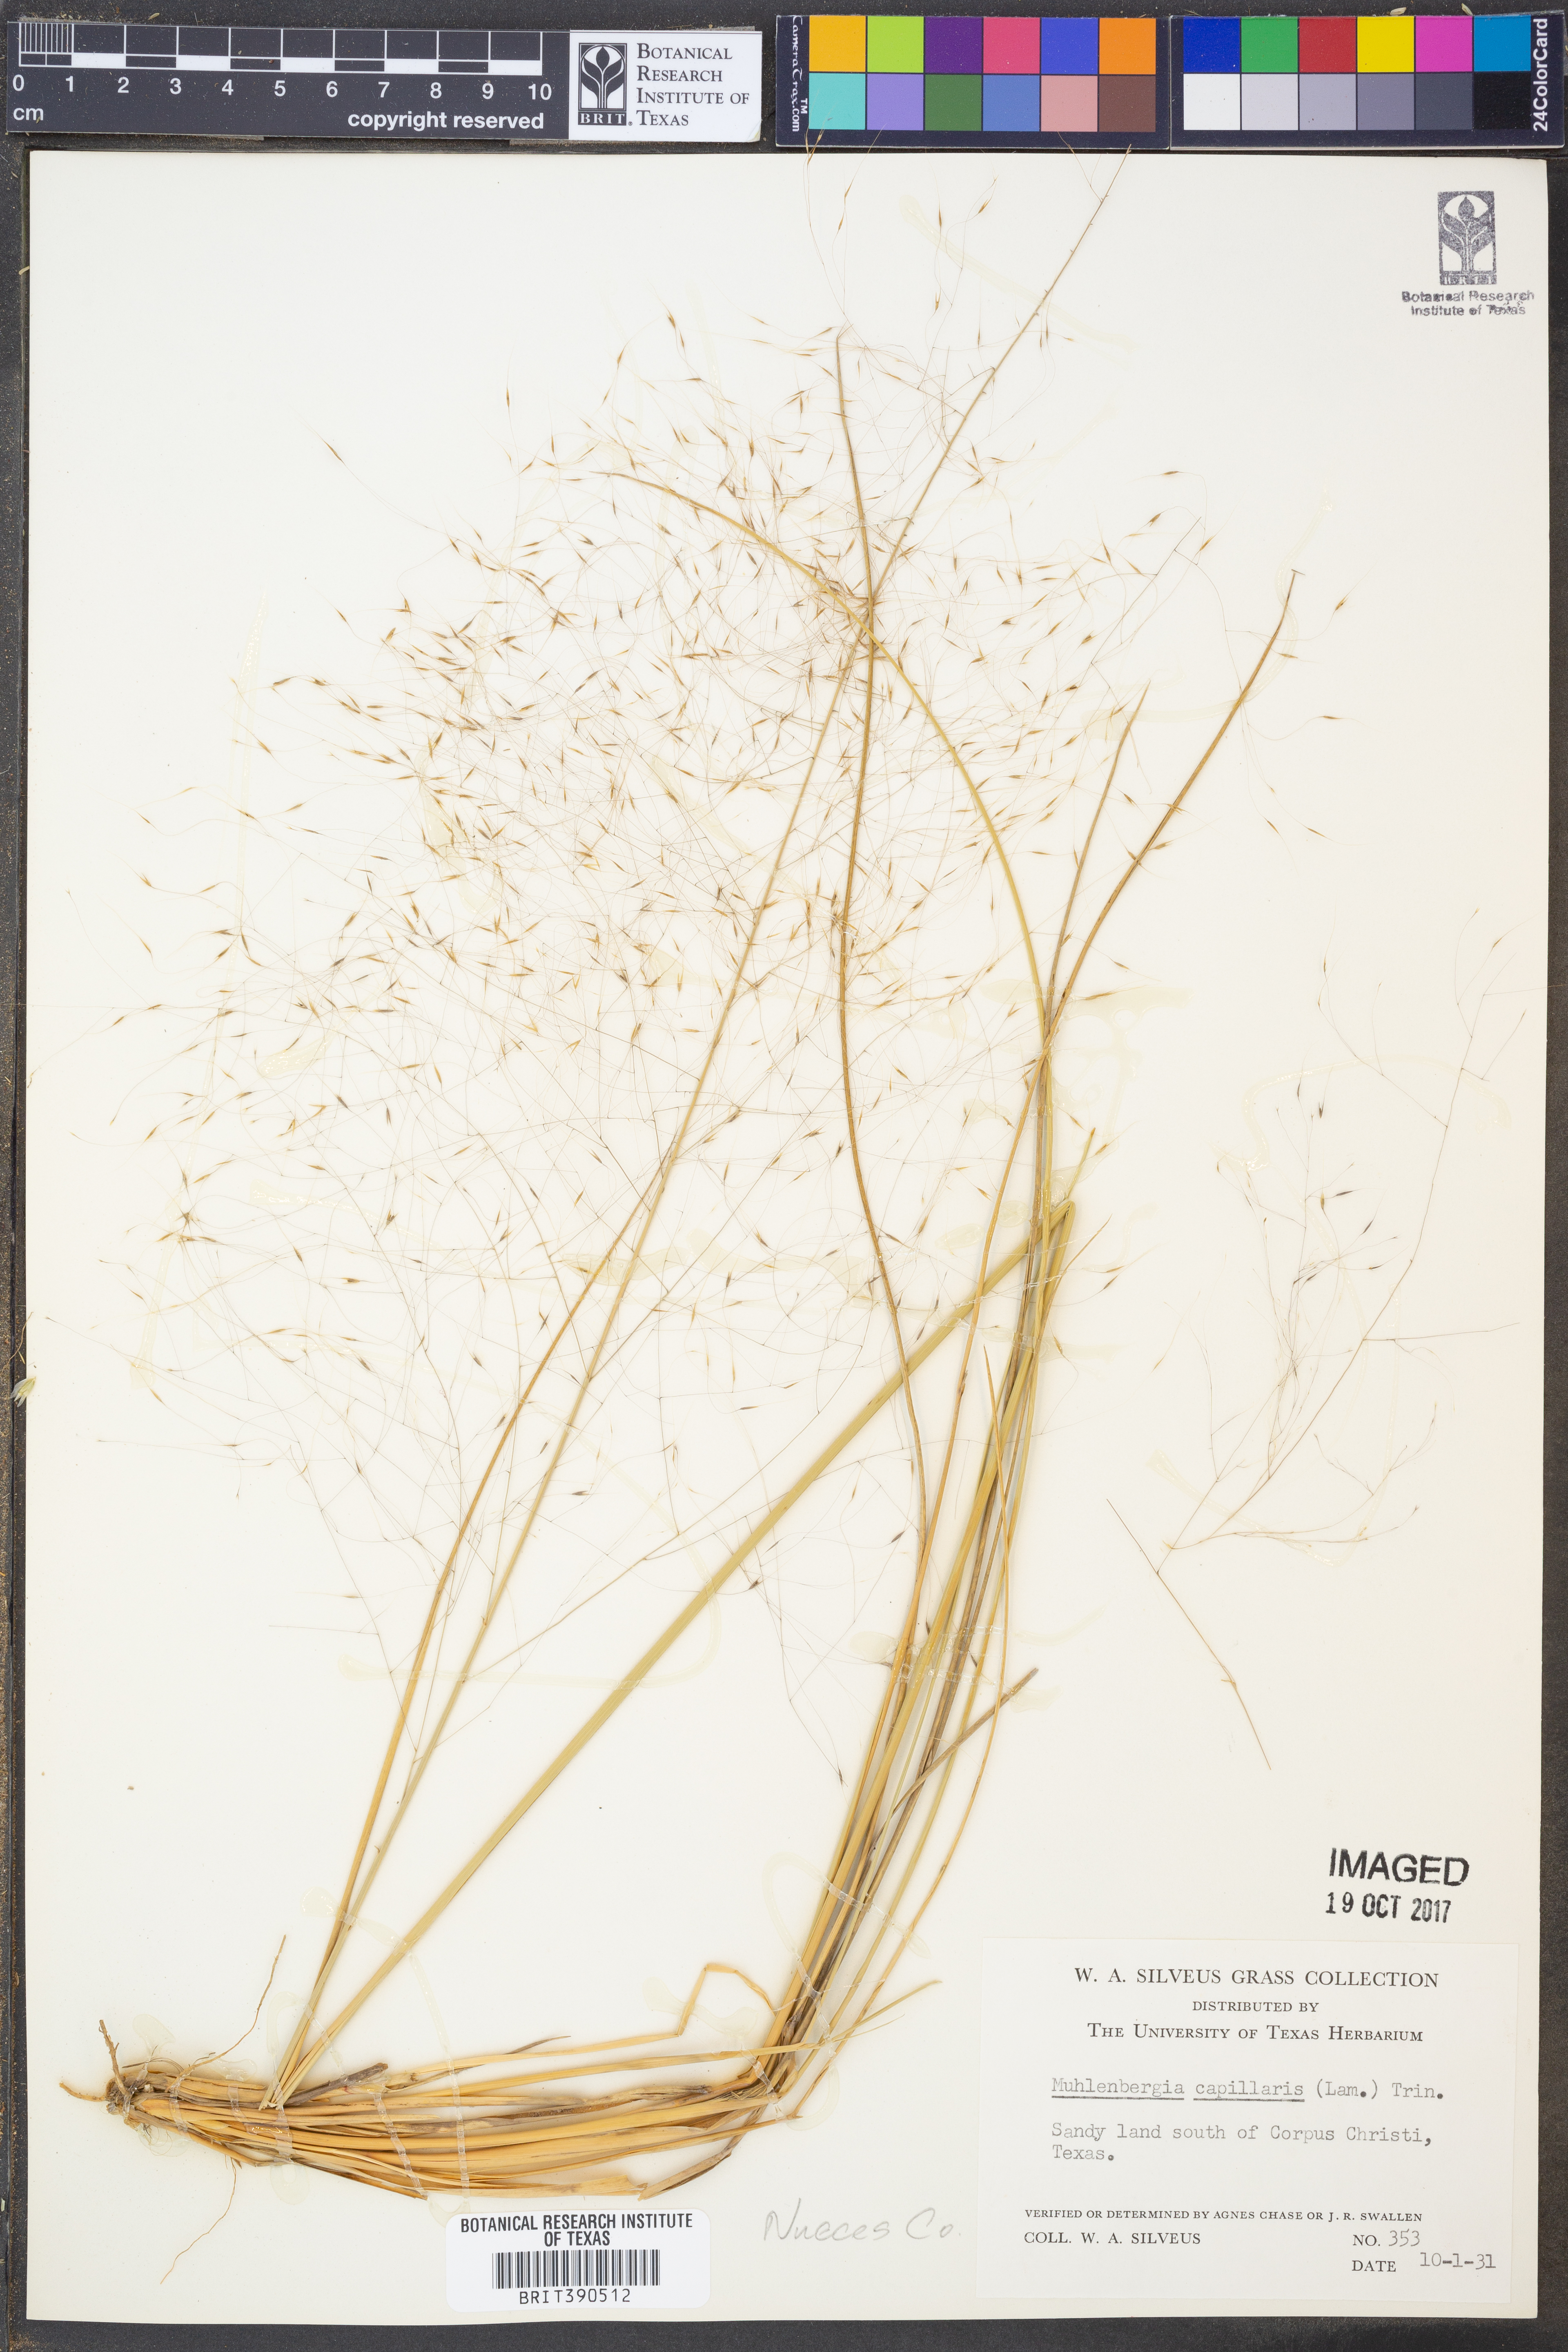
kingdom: Plantae
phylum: Tracheophyta
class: Liliopsida
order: Poales
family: Poaceae
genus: Muhlenbergia
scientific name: Muhlenbergia capillaris
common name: Purple grass
